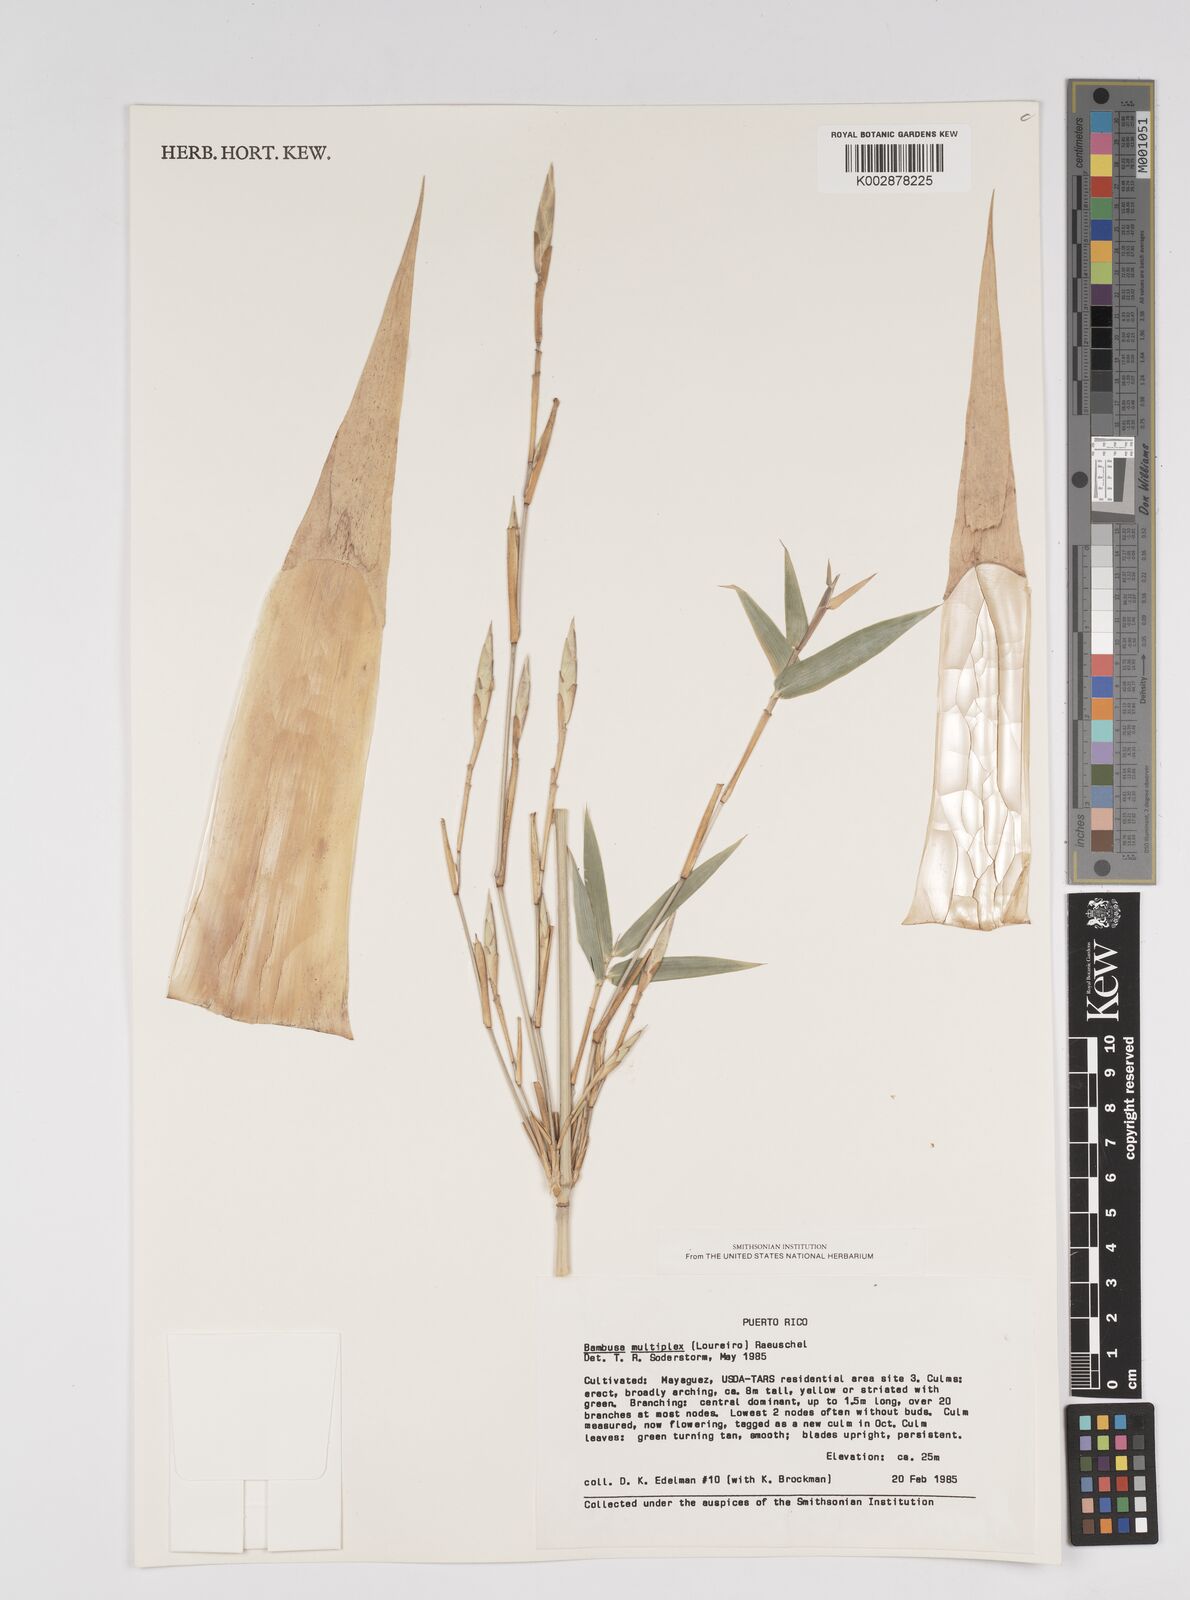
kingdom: Plantae
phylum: Tracheophyta
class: Liliopsida
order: Poales
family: Poaceae
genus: Bambusa
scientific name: Bambusa multiplex
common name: Hedge bamboo
